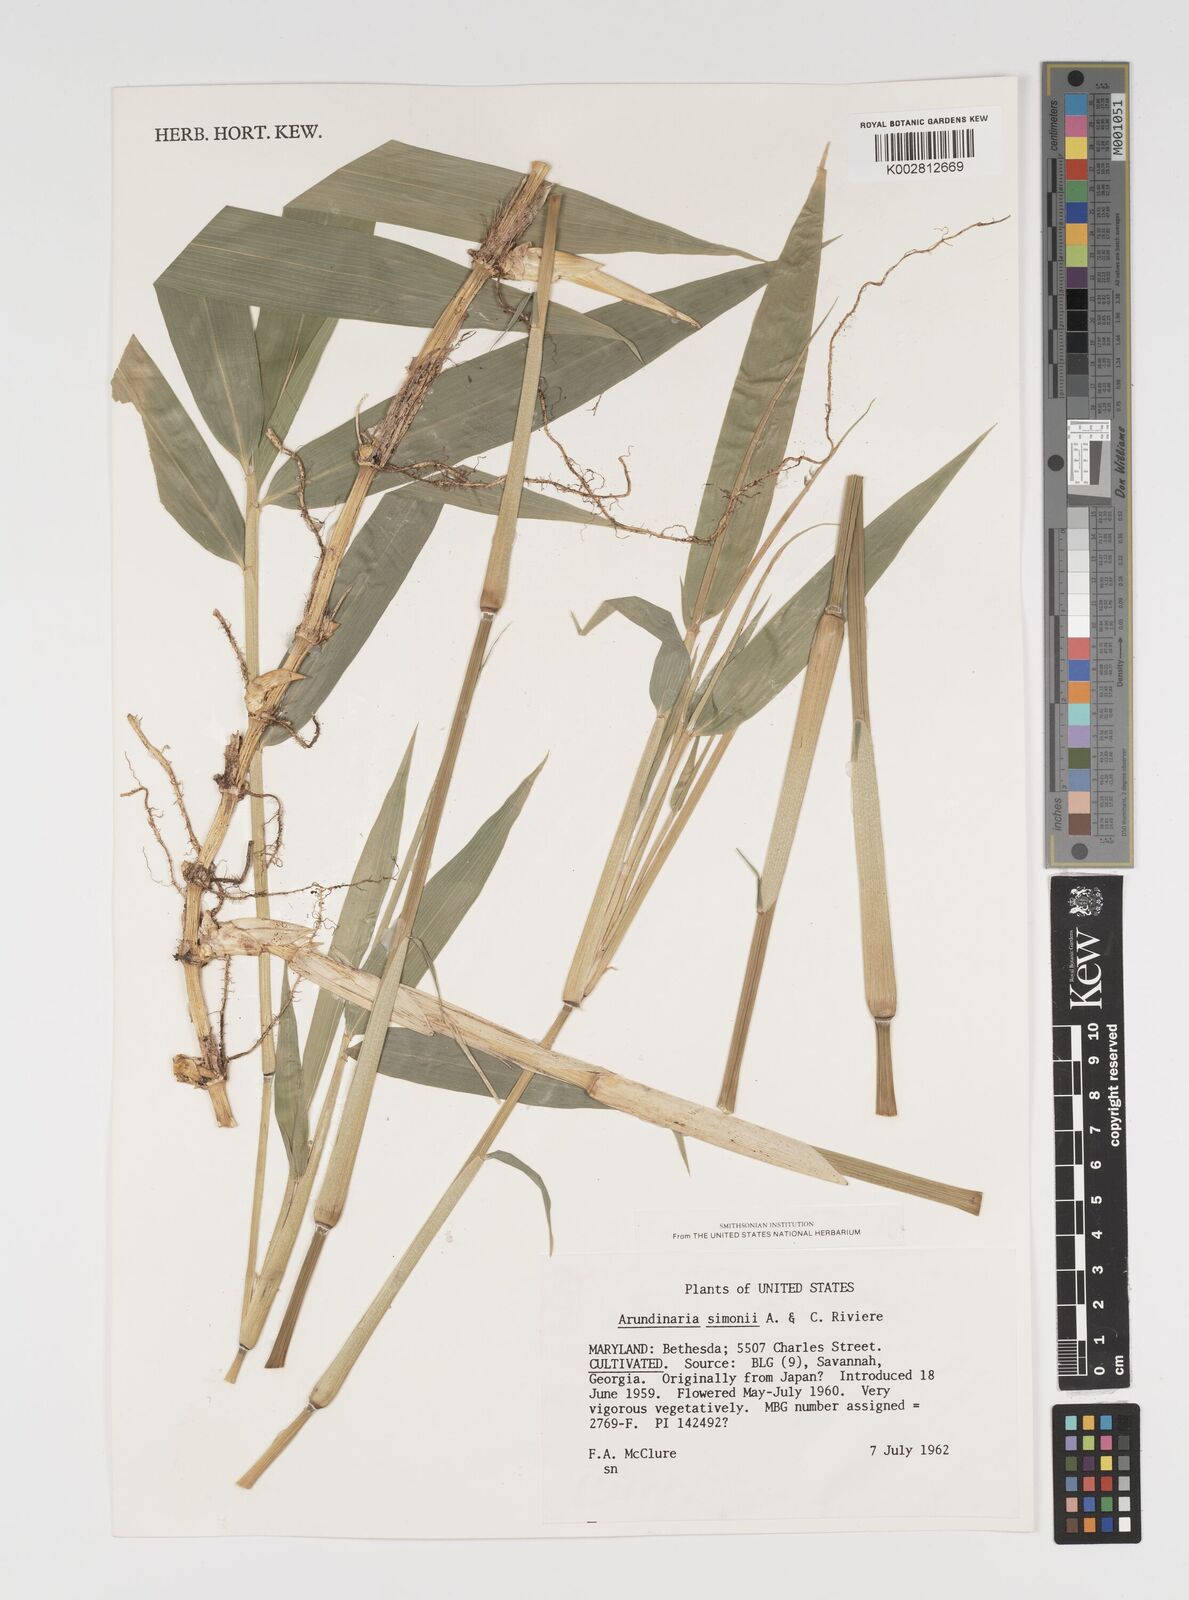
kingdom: Plantae
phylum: Tracheophyta
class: Liliopsida
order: Poales
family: Poaceae
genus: Pleioblastus
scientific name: Pleioblastus simonii
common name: Simon bamboo
